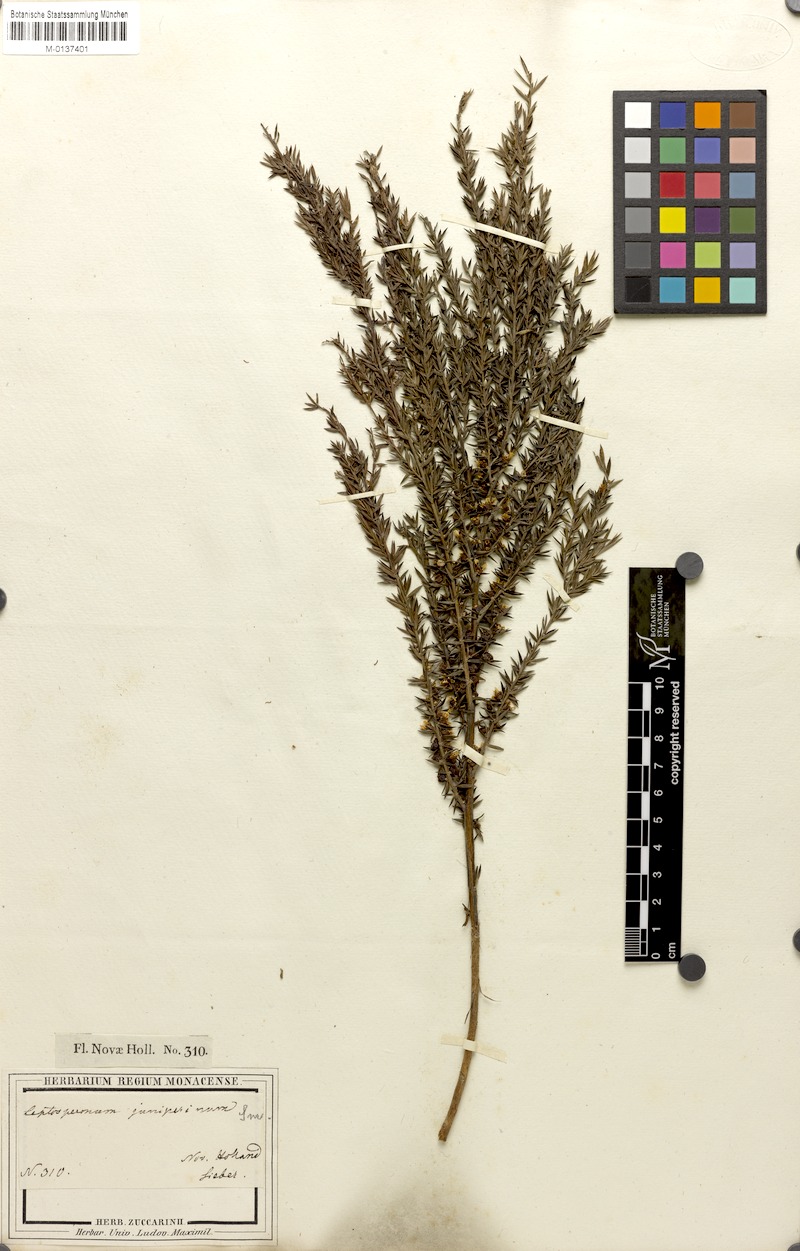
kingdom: Plantae
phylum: Tracheophyta
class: Magnoliopsida
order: Myrtales
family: Myrtaceae
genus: Leptospermum
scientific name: Leptospermum juniperinum
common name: Prickly teatree
